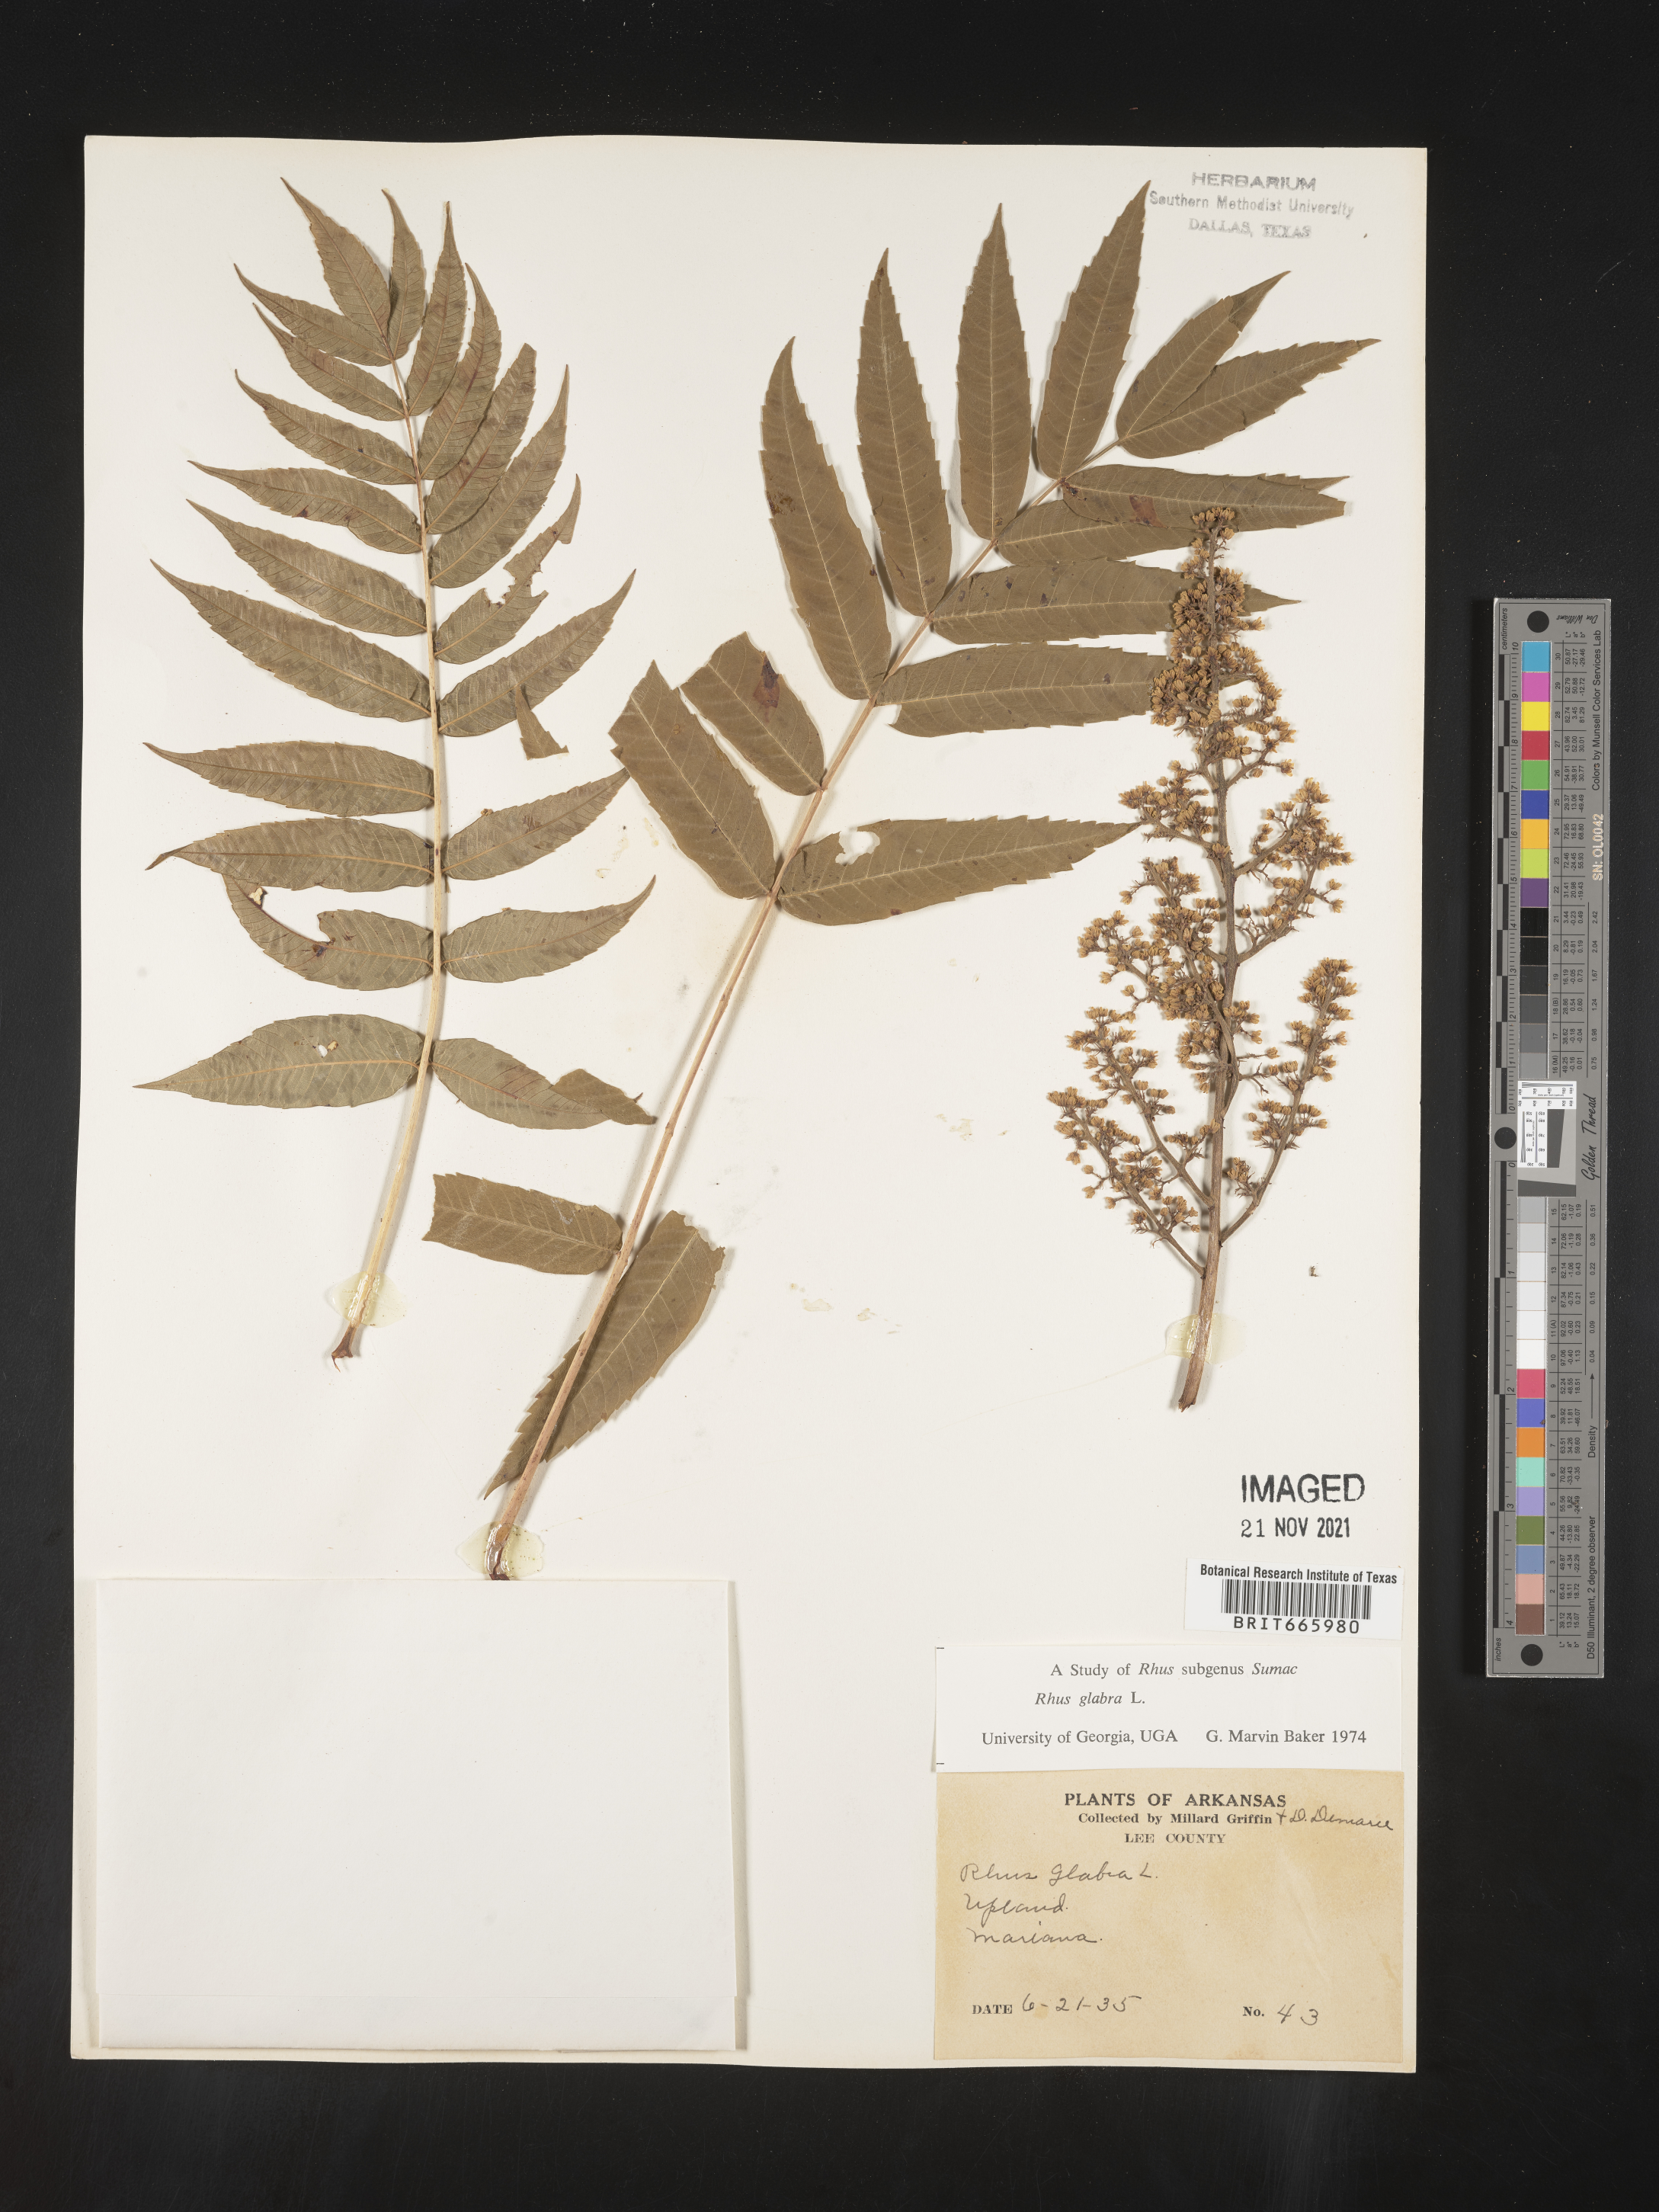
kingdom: Plantae
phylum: Tracheophyta
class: Magnoliopsida
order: Sapindales
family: Anacardiaceae
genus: Rhus
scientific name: Rhus glabra
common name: Scarlet sumac
